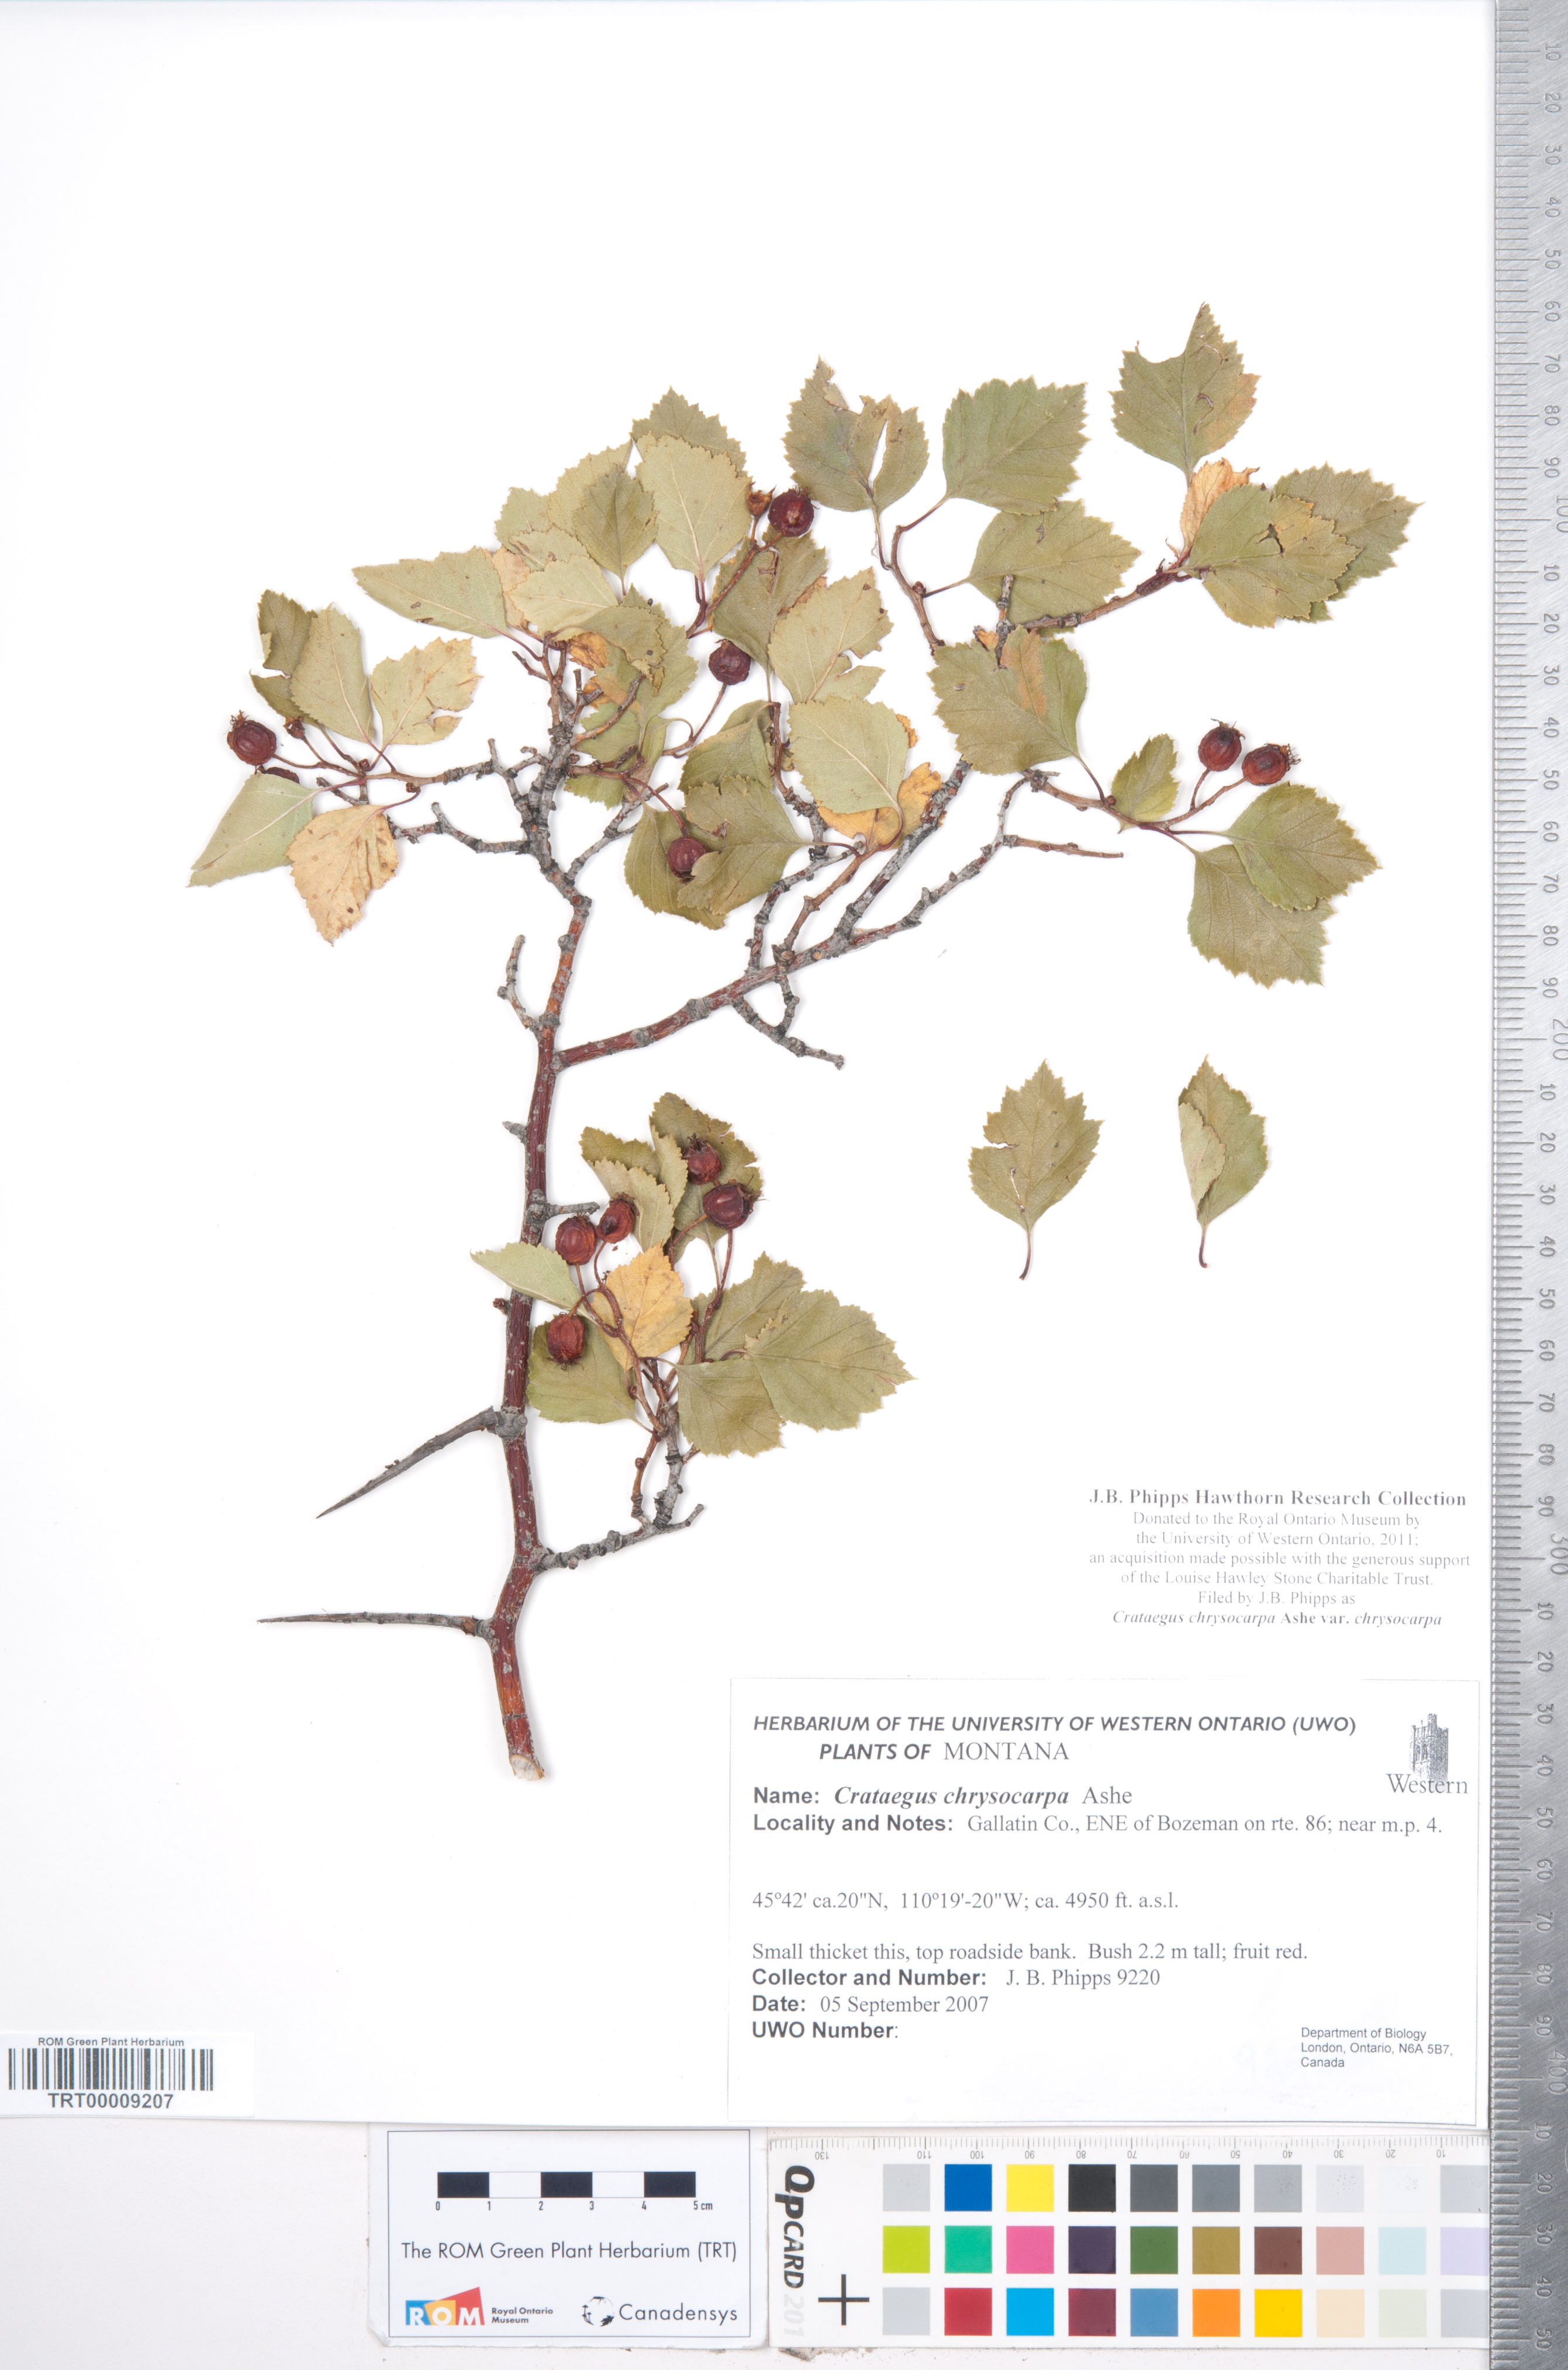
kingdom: Plantae
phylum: Tracheophyta
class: Magnoliopsida
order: Rosales
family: Rosaceae
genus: Crataegus
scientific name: Crataegus chrysocarpa
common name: Fire-berry hawthorn
